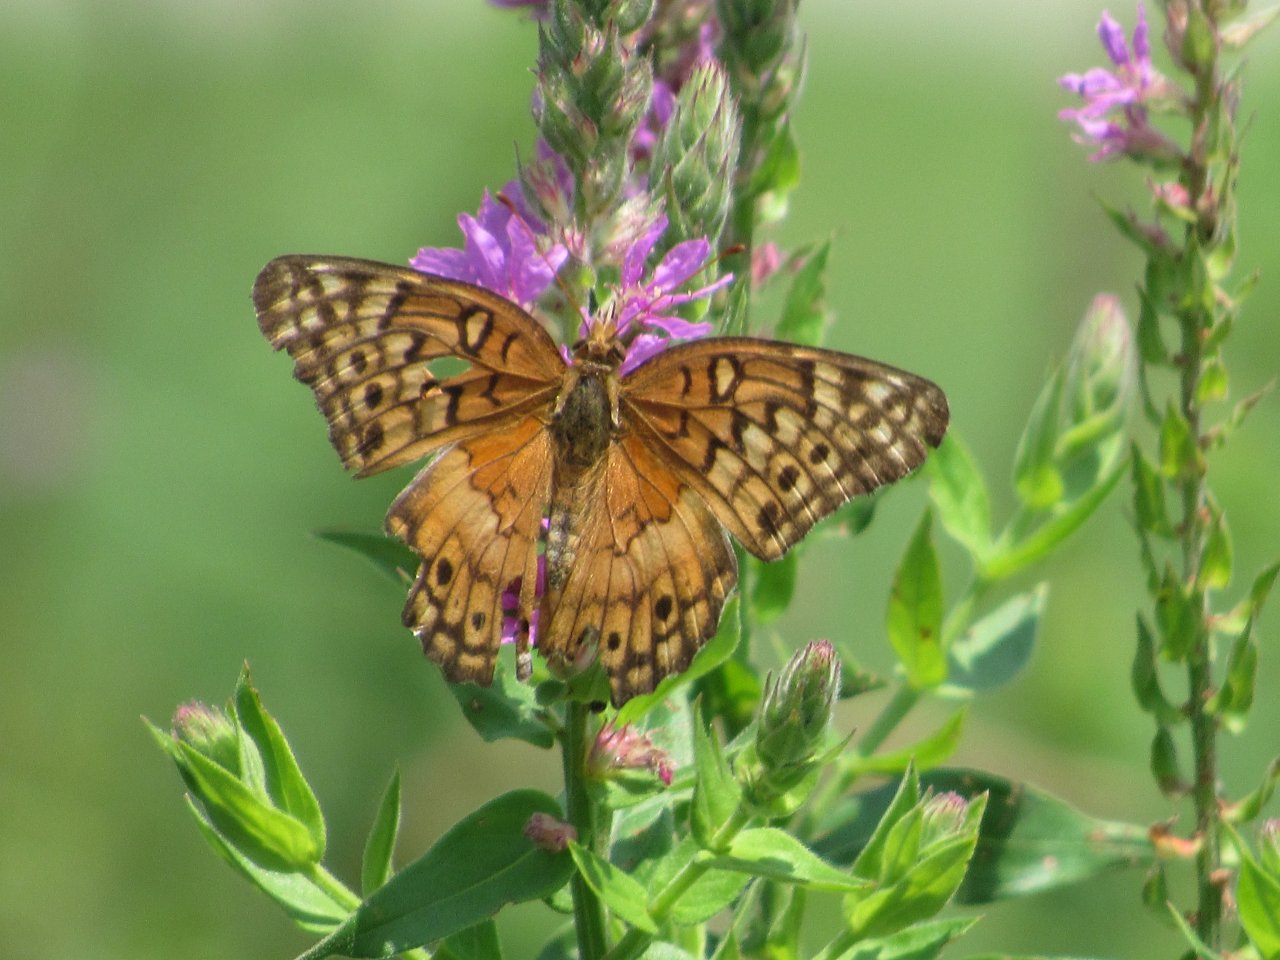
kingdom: Animalia
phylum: Arthropoda
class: Insecta
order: Lepidoptera
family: Nymphalidae
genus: Euptoieta
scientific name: Euptoieta claudia
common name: Variegated Fritillary
